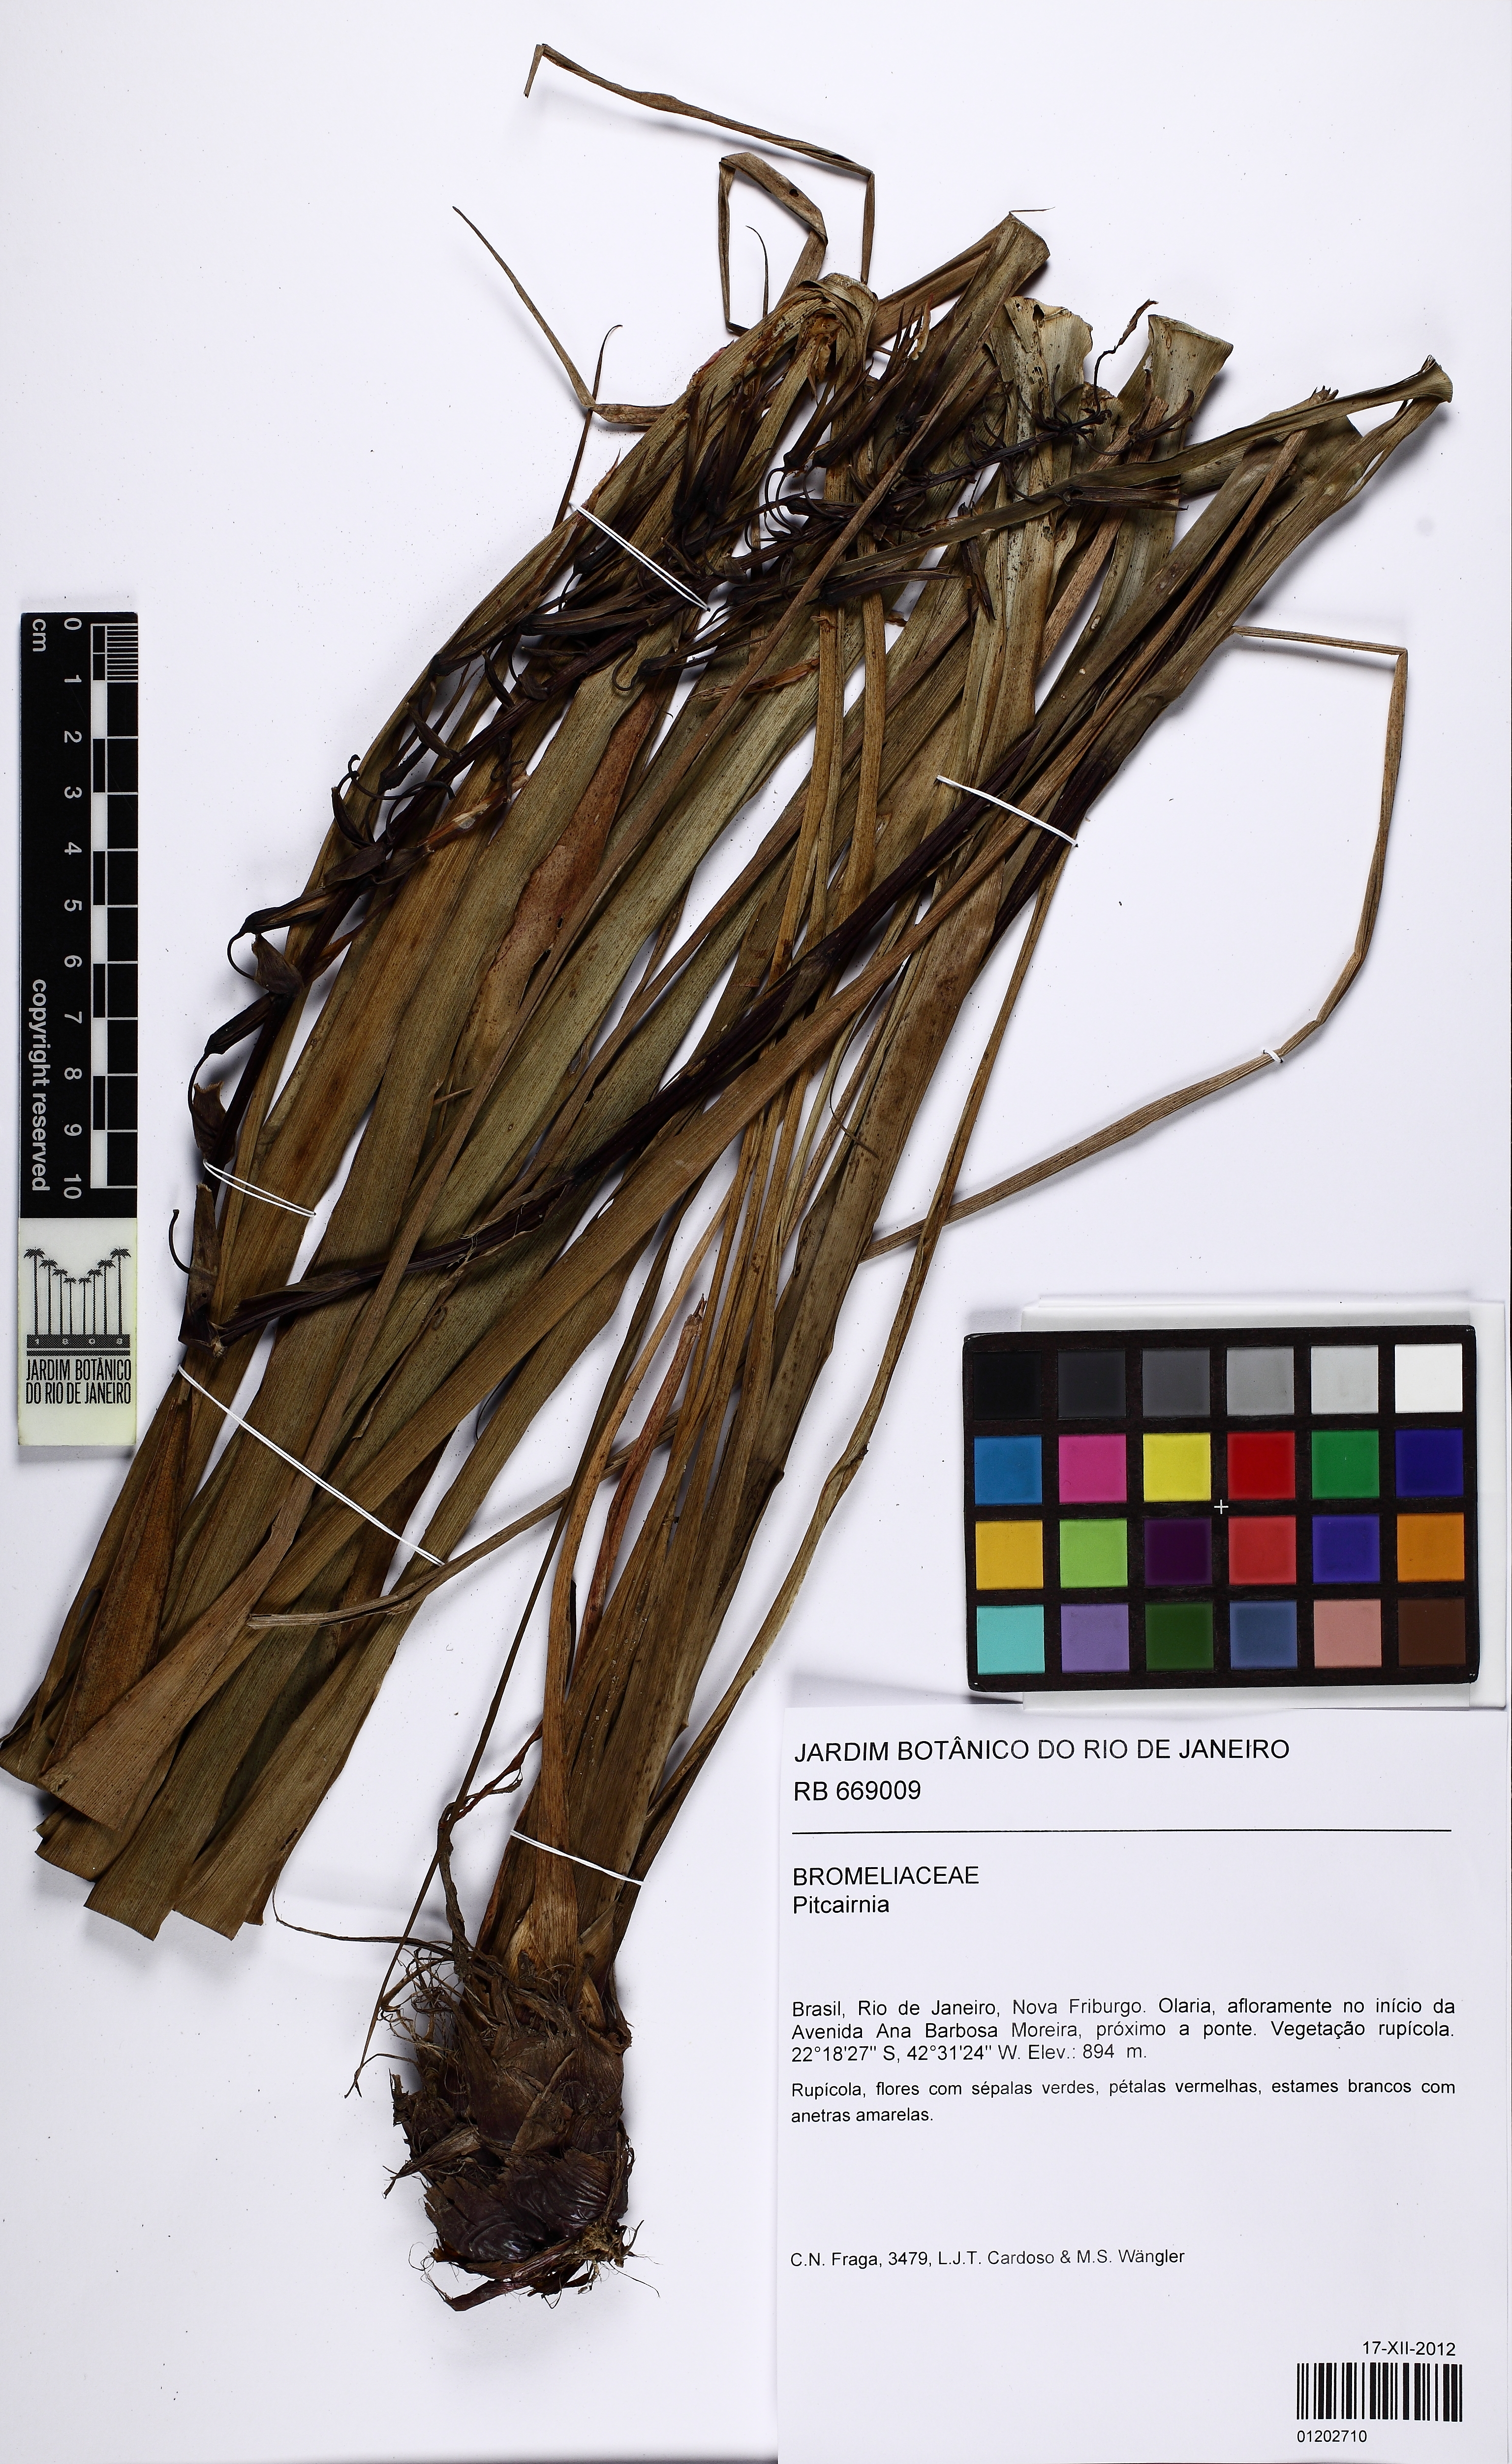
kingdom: Plantae
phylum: Tracheophyta
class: Liliopsida
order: Poales
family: Bromeliaceae
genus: Pitcairnia
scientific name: Pitcairnia flammea
